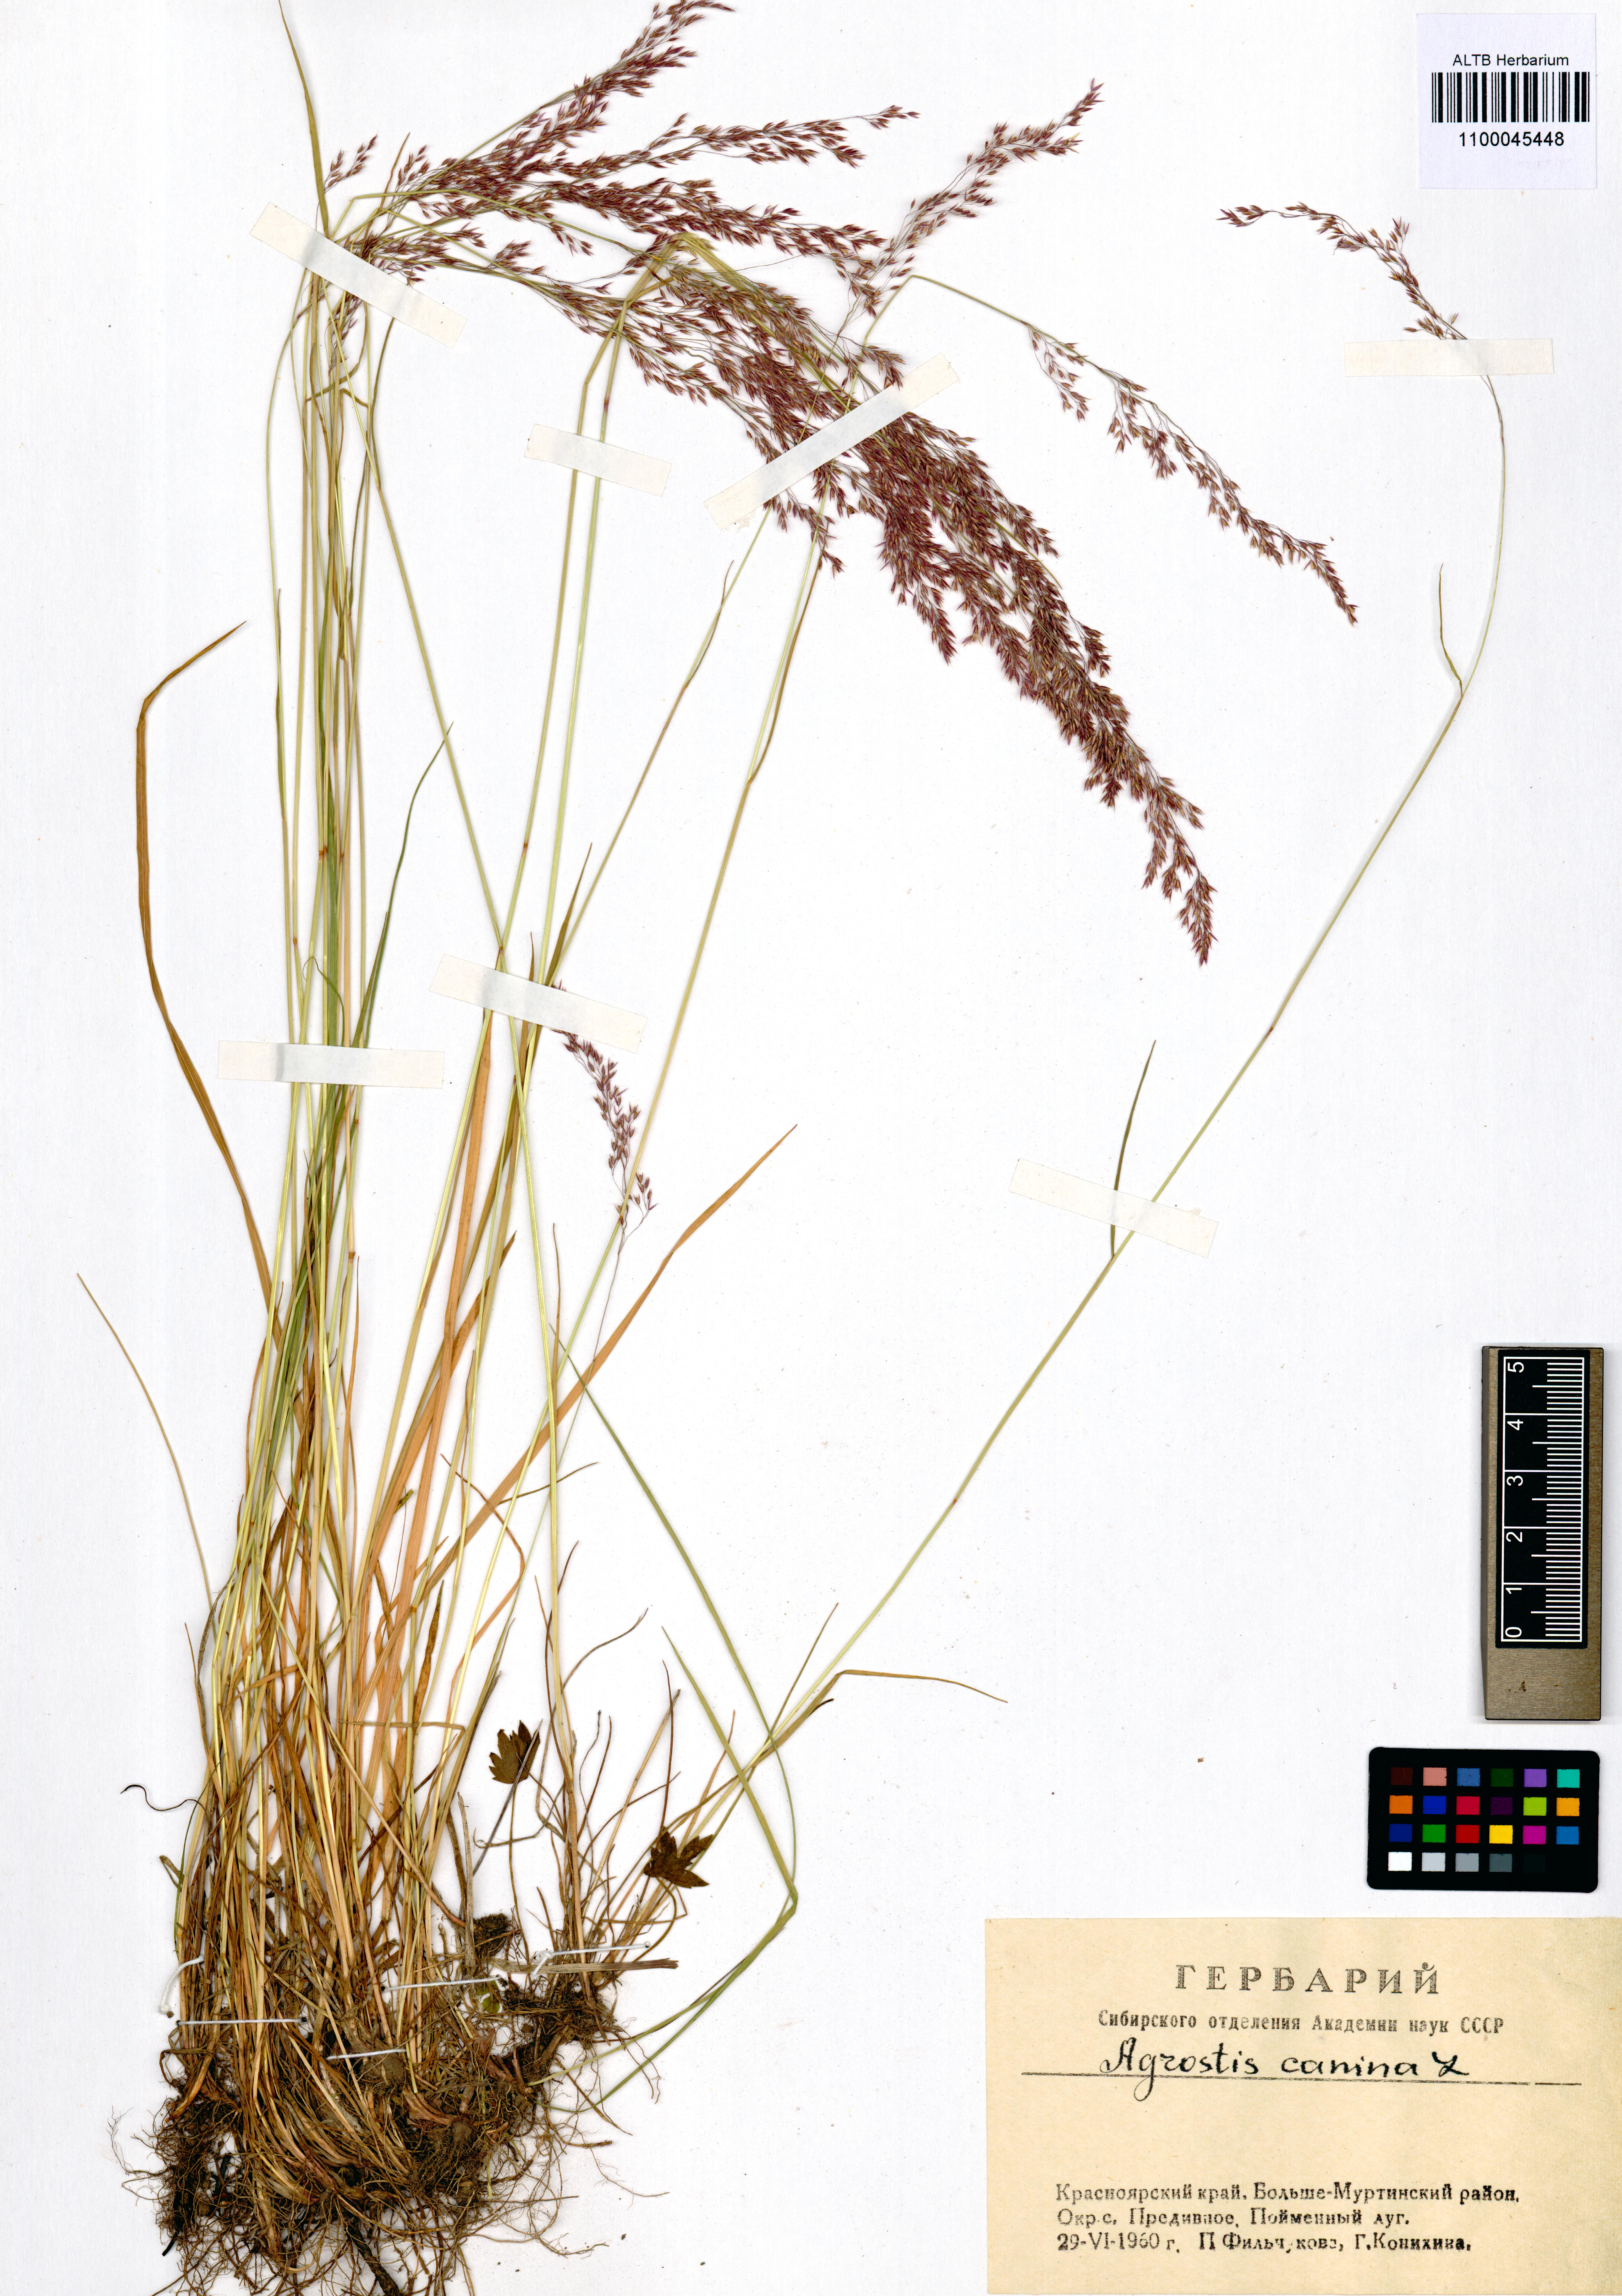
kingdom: Plantae
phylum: Tracheophyta
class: Liliopsida
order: Poales
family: Poaceae
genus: Agrostis
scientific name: Agrostis canina
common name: Velvet bent
